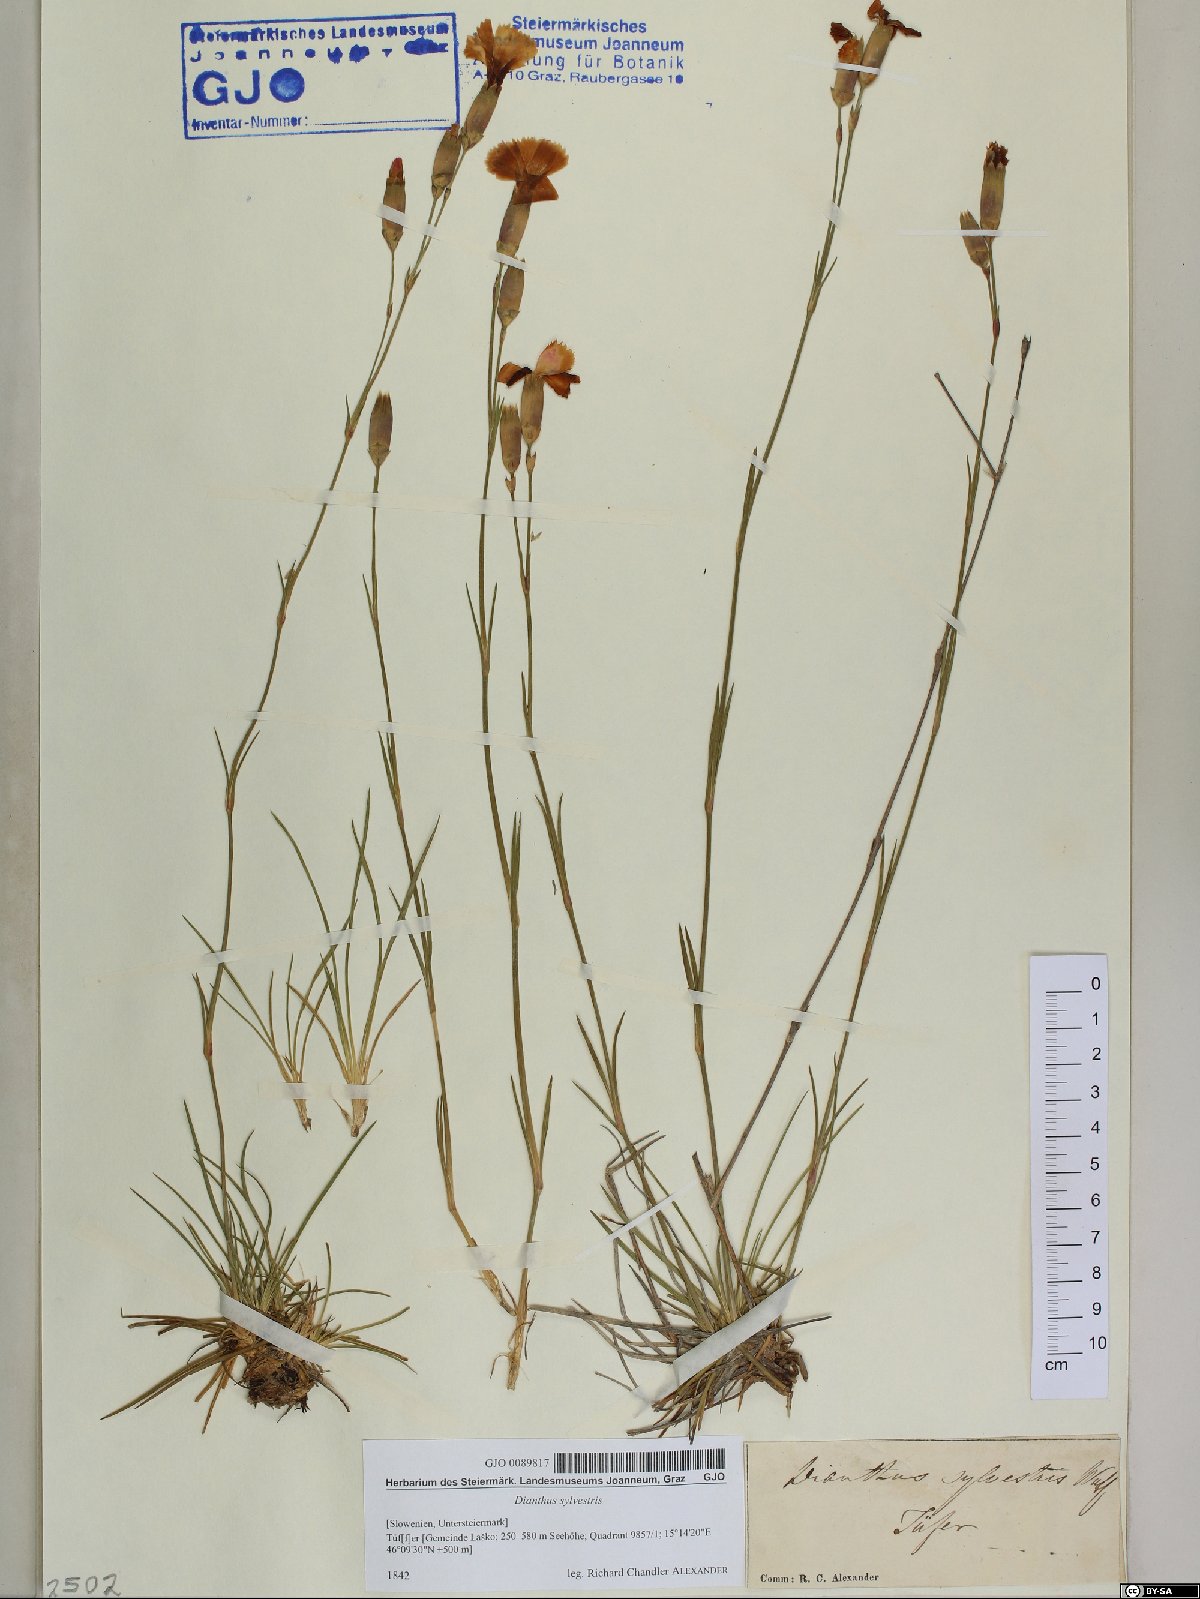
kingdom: Plantae
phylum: Tracheophyta
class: Magnoliopsida
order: Caryophyllales
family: Caryophyllaceae
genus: Dianthus
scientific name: Dianthus sylvestris
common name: Wood pink
